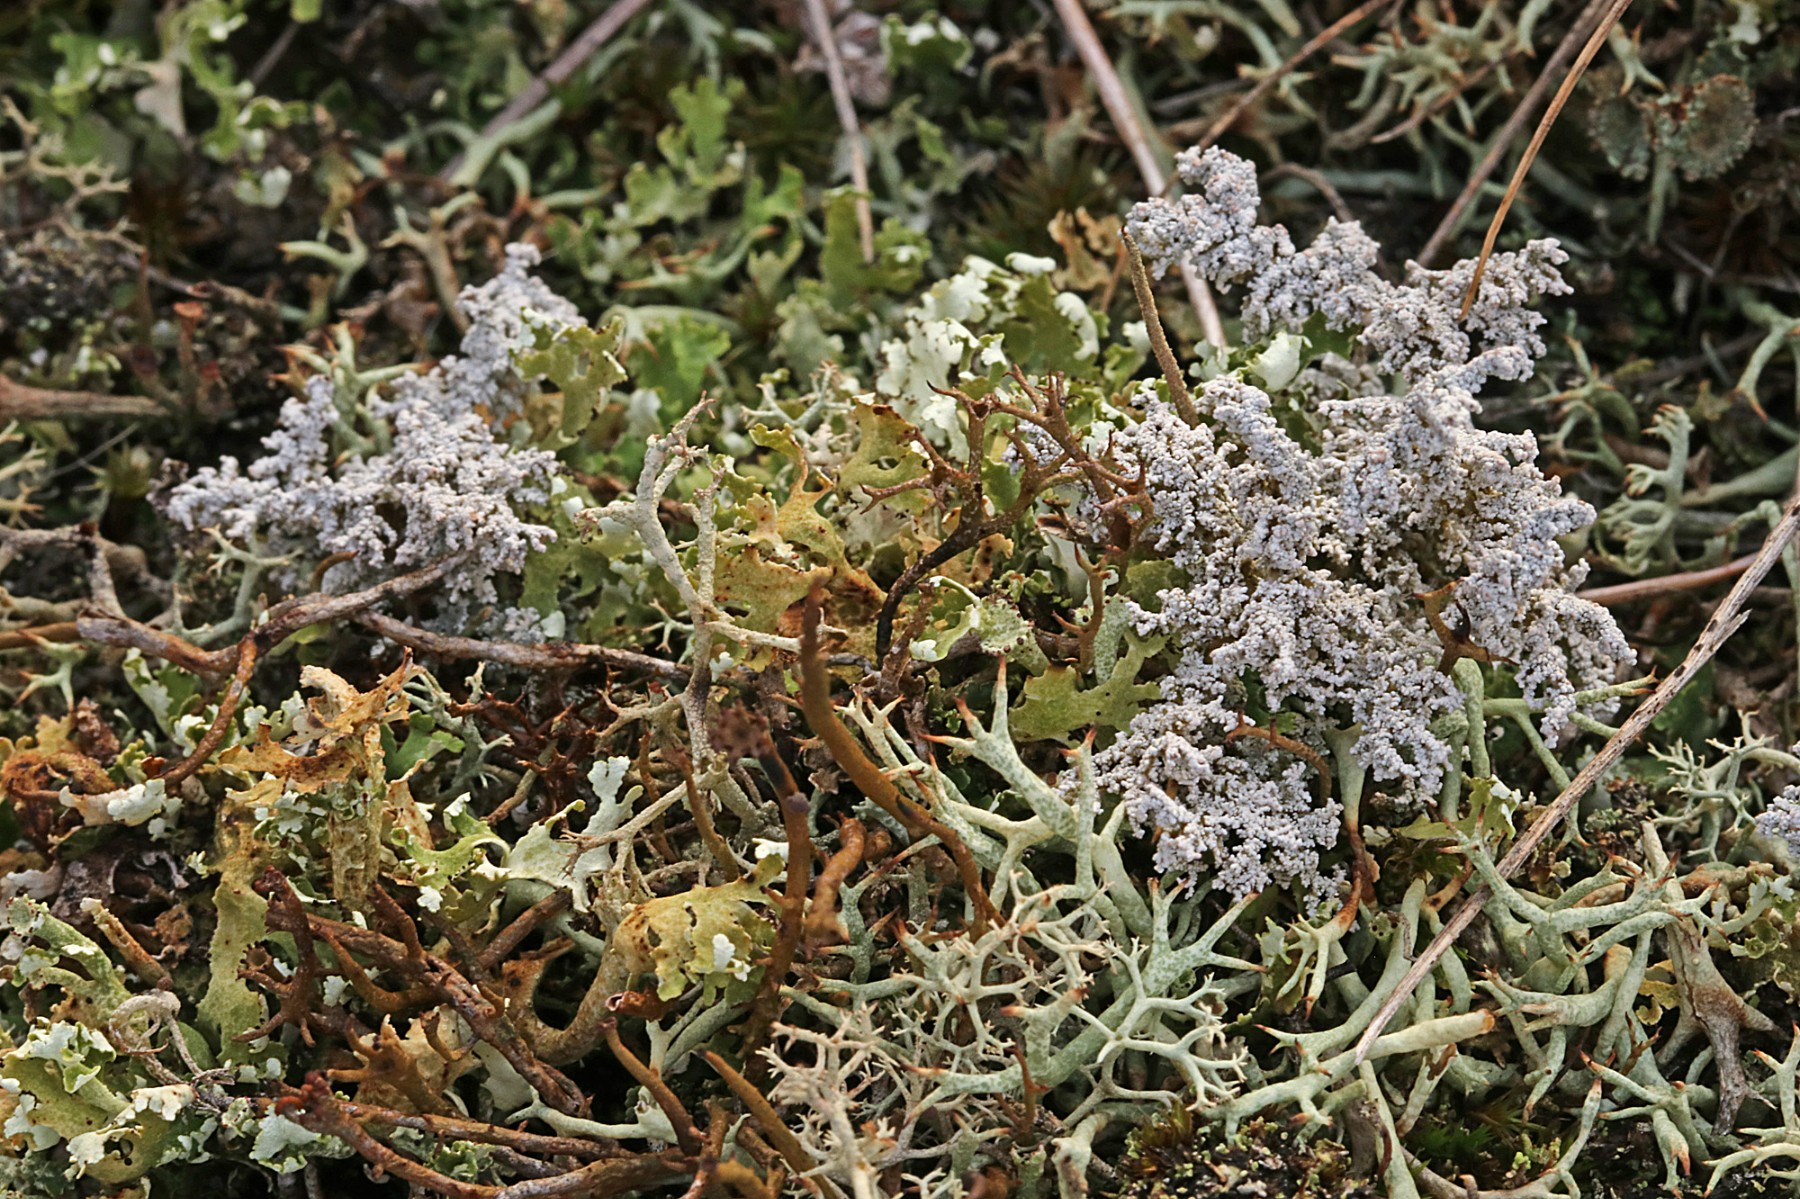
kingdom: Fungi
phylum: Ascomycota
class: Lecanoromycetes
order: Lecanorales
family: Stereocaulaceae
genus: Stereocaulon
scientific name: Stereocaulon saxatile
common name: klit-korallav
